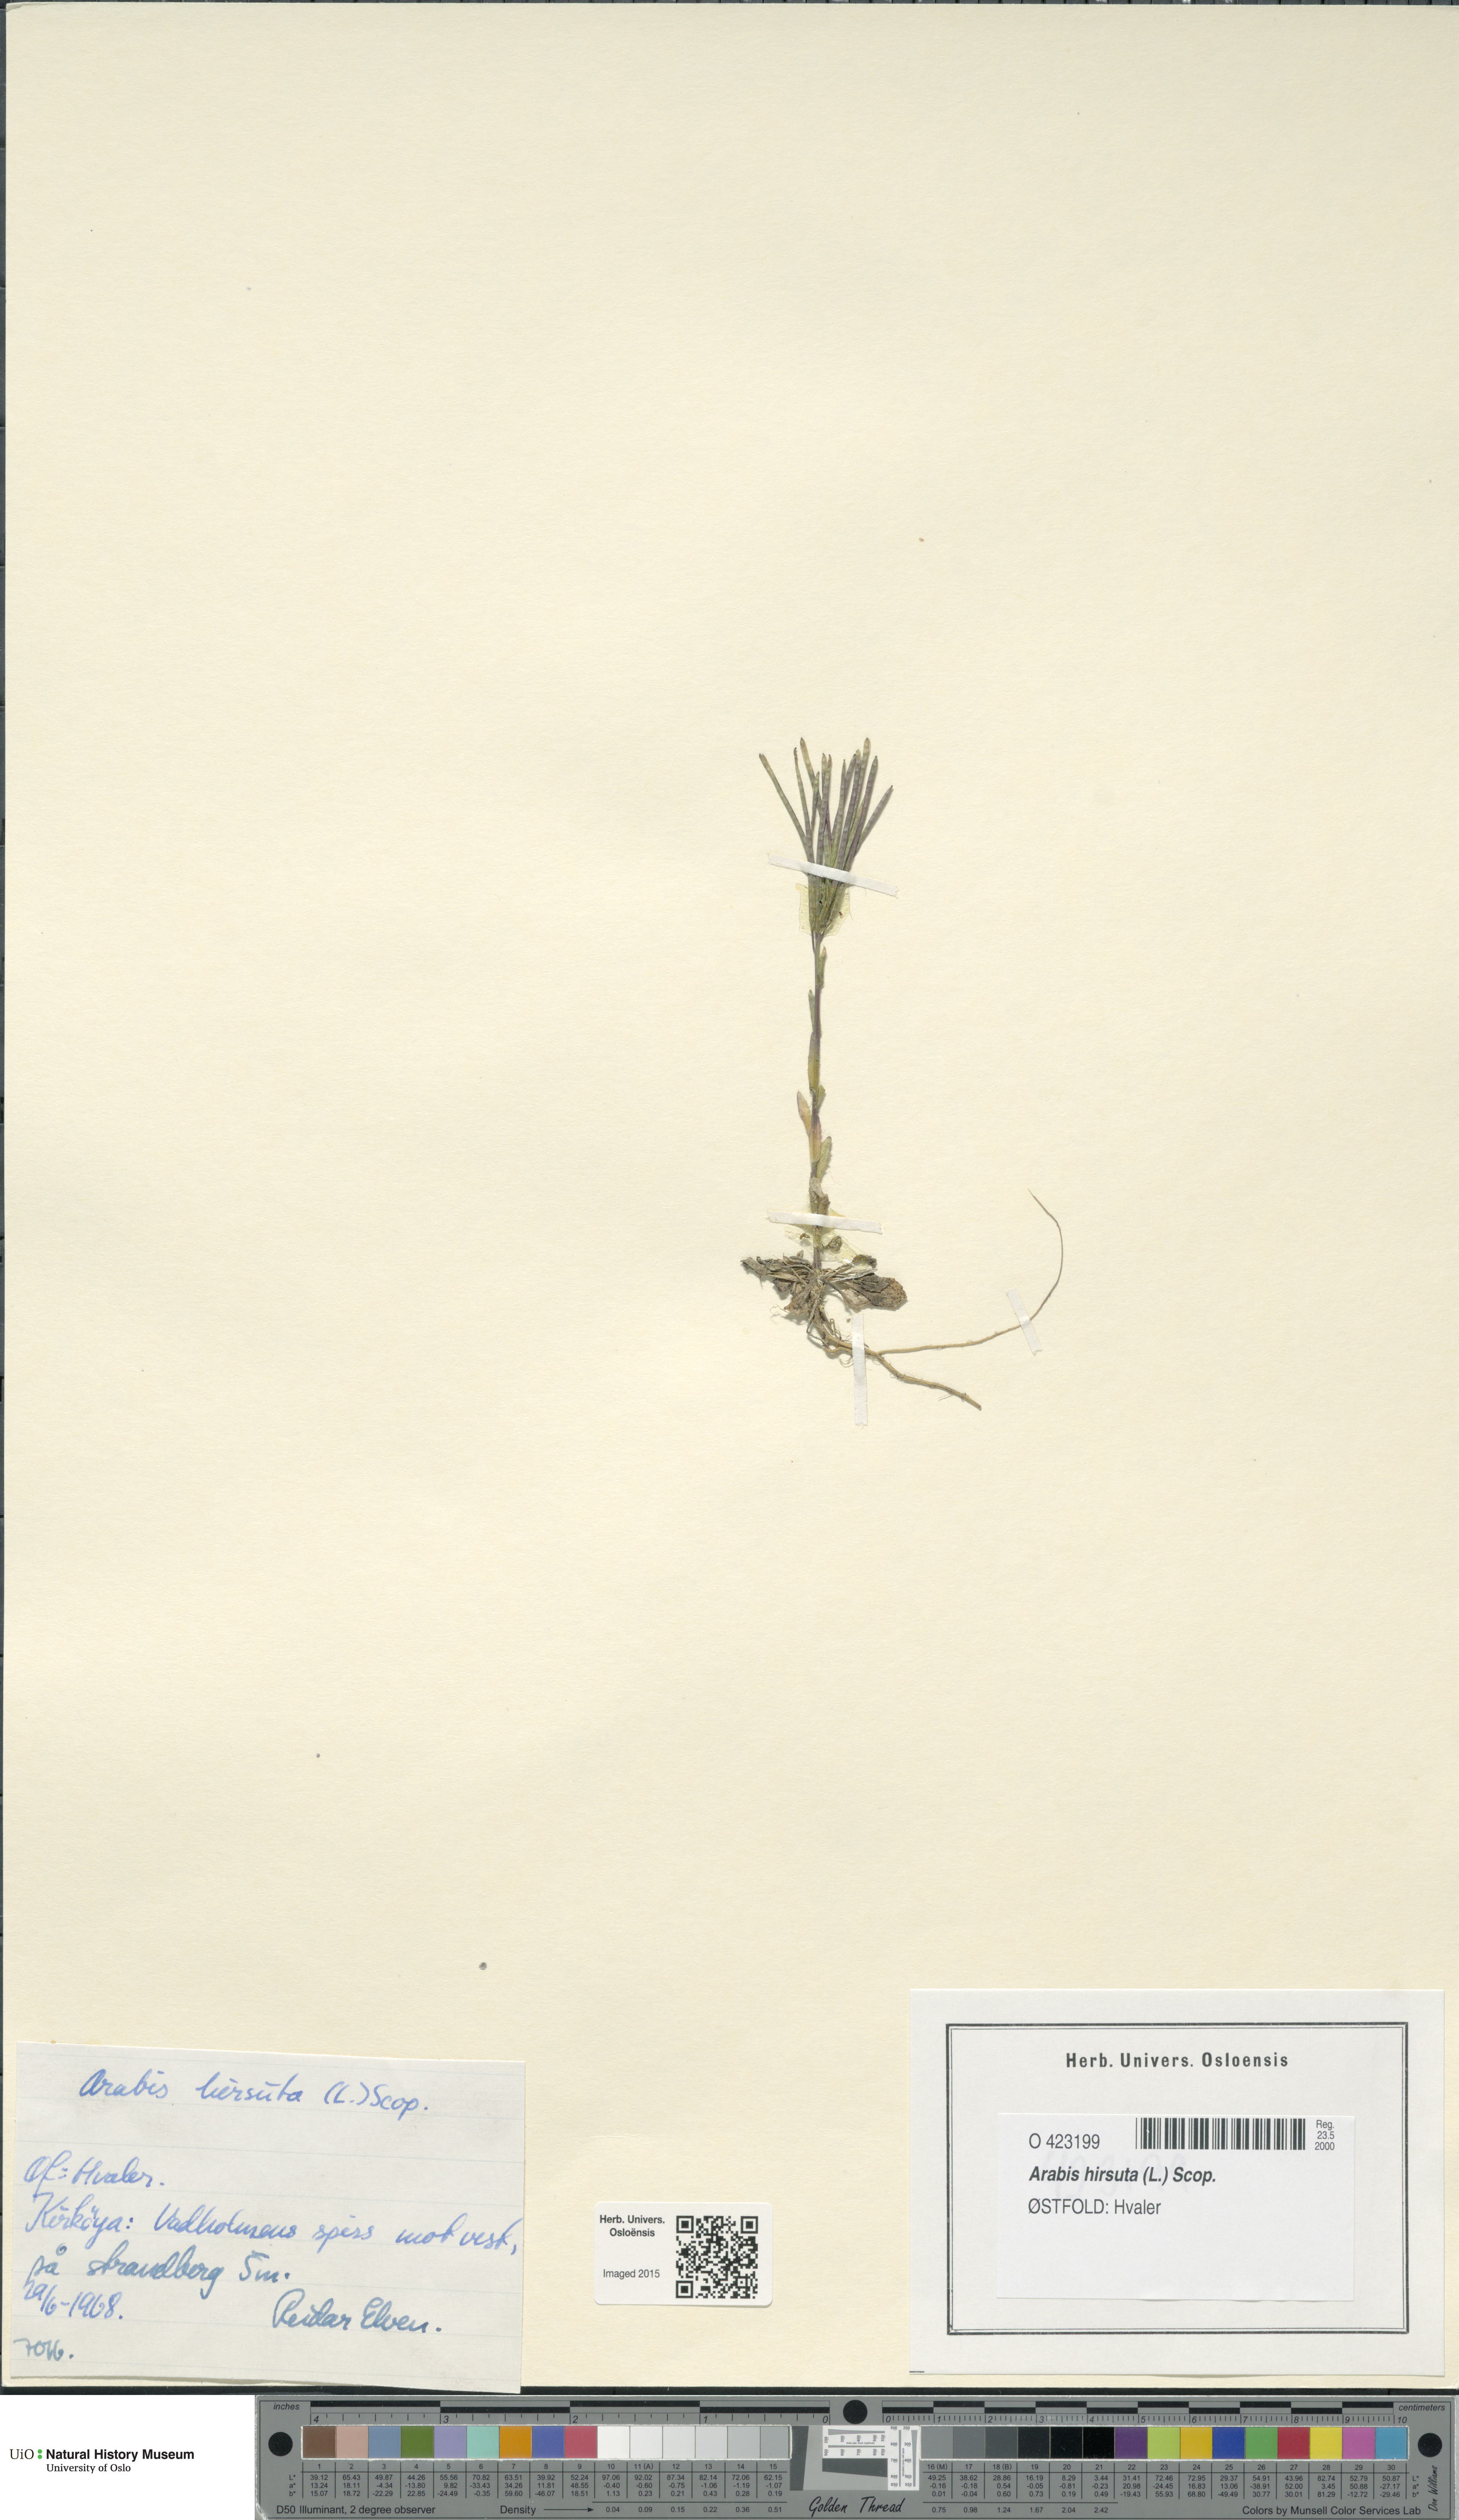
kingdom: Plantae
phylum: Tracheophyta
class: Magnoliopsida
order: Brassicales
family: Brassicaceae
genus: Arabis
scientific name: Arabis hirsuta
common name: Hairy rock-cress
